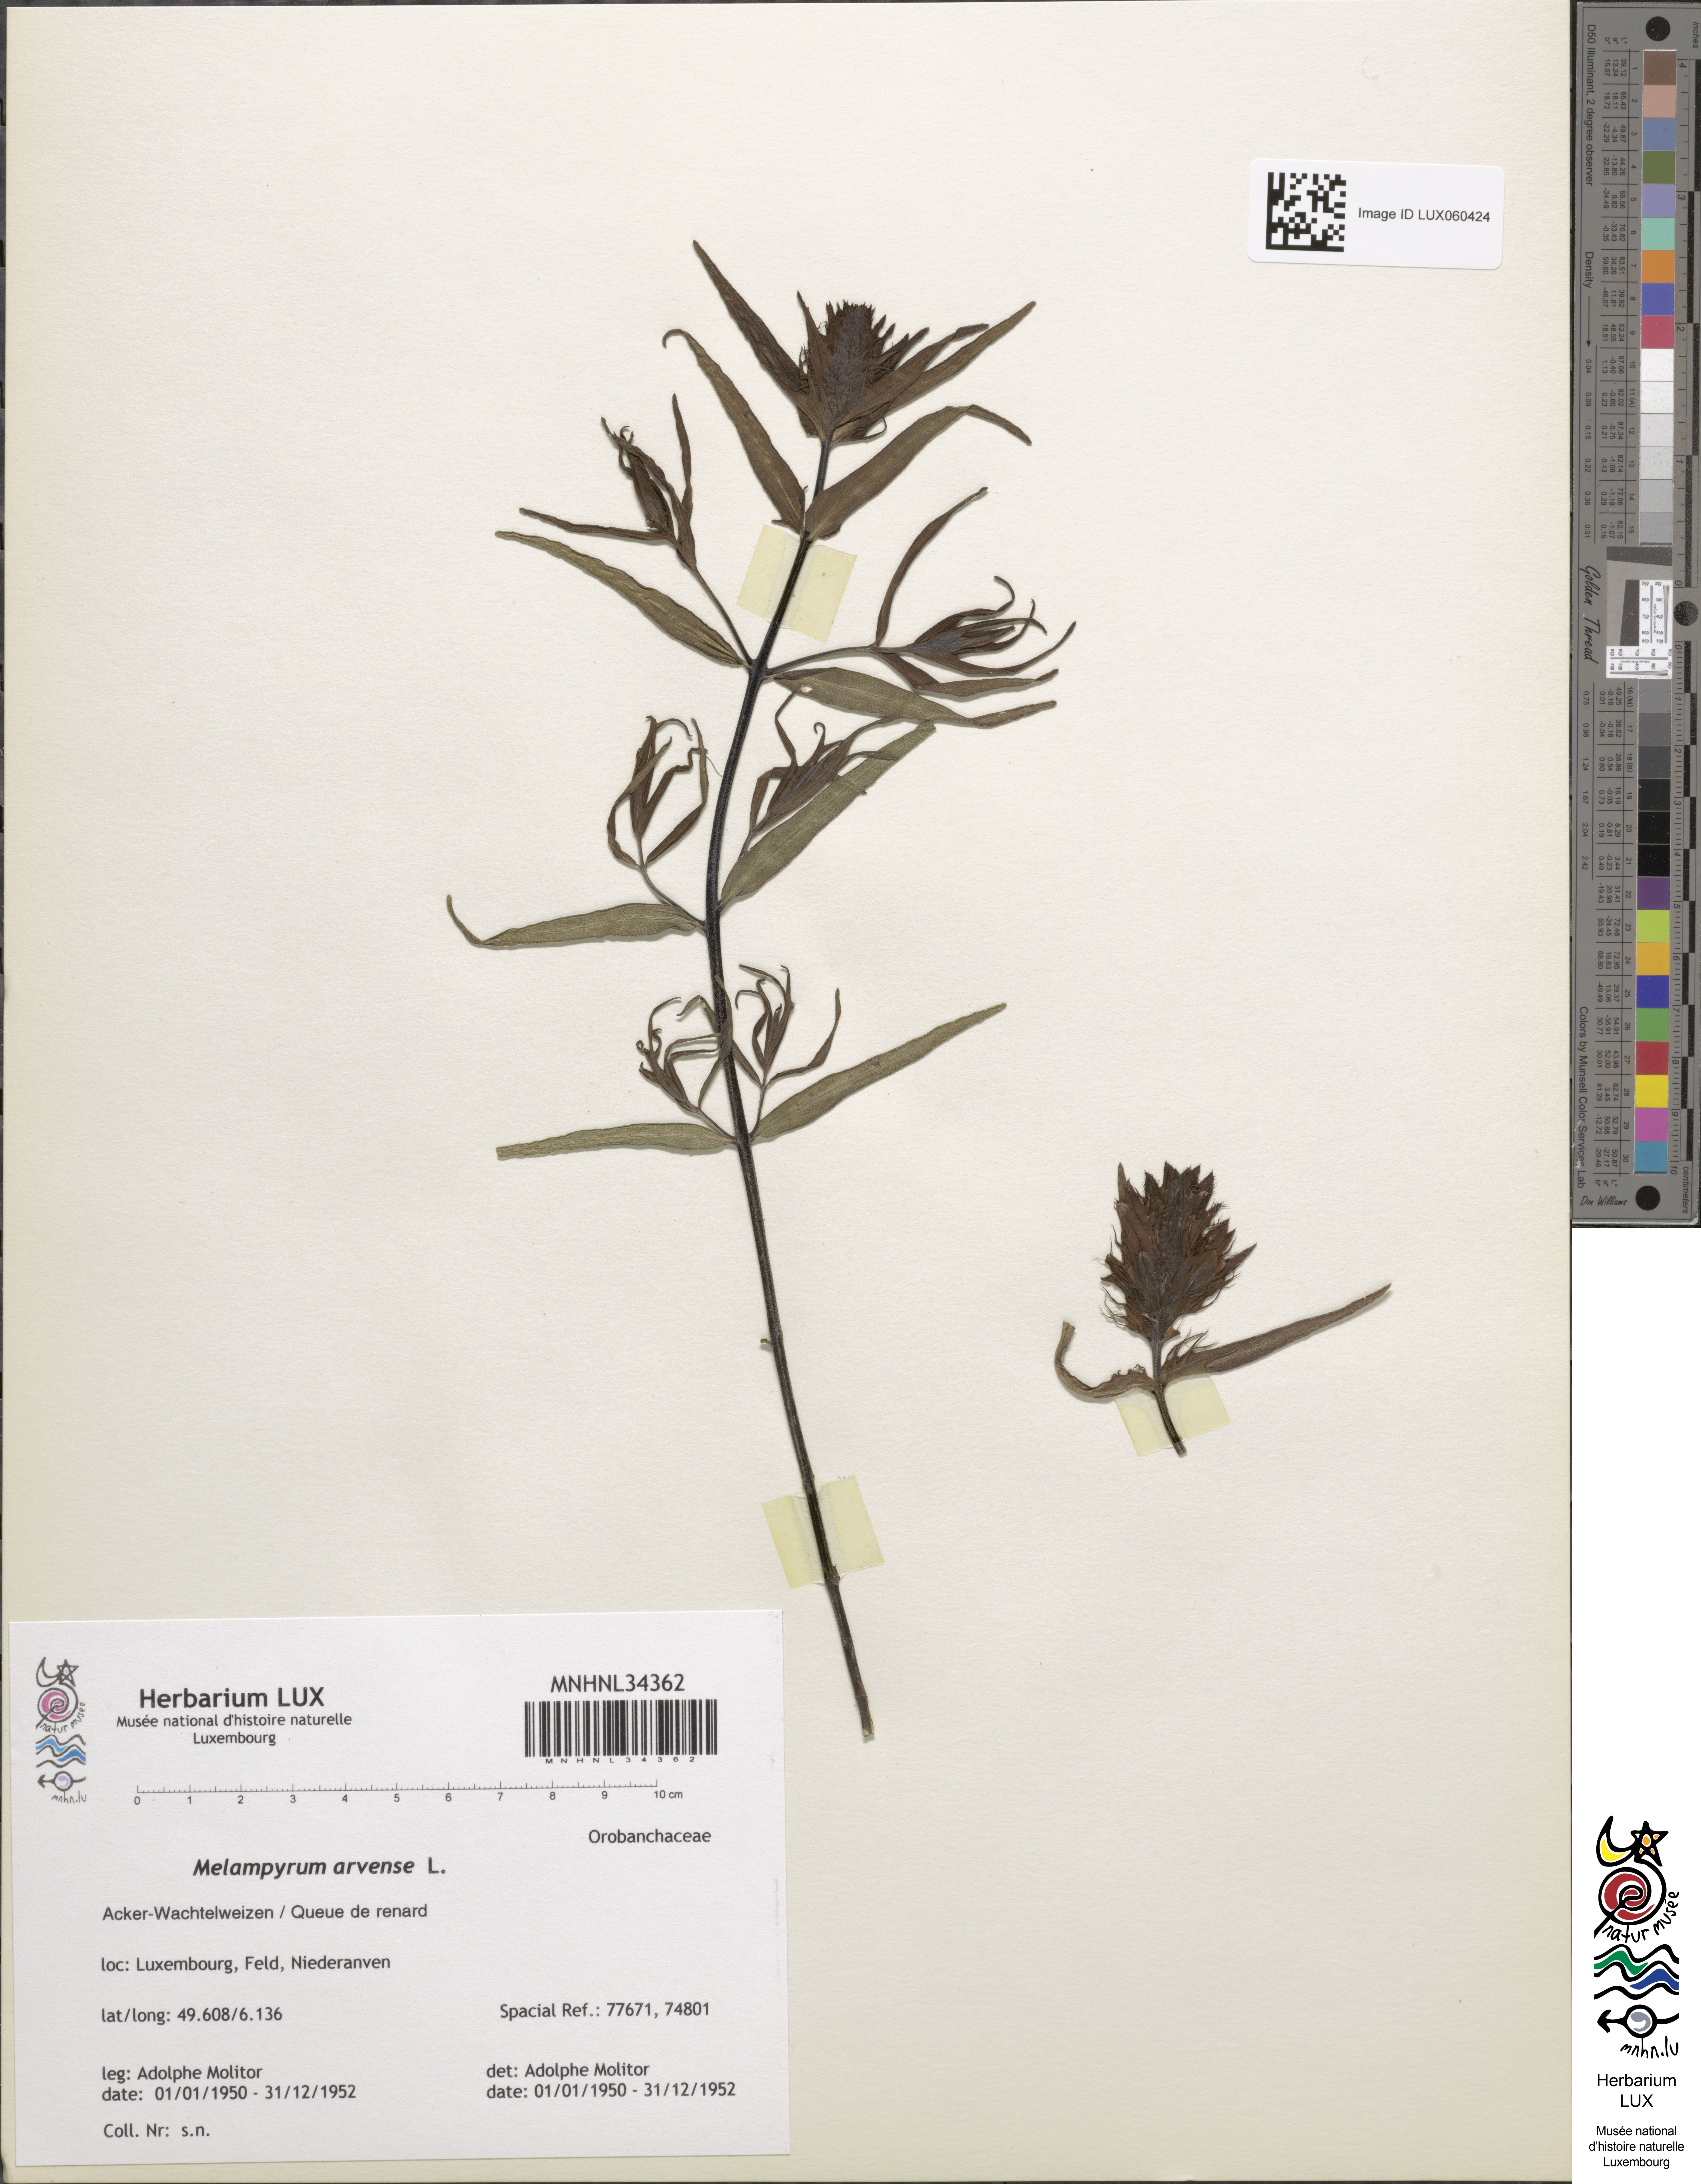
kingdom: Plantae
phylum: Tracheophyta
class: Magnoliopsida
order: Lamiales
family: Orobanchaceae
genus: Melampyrum
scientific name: Melampyrum arvense
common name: Field cow-wheat
